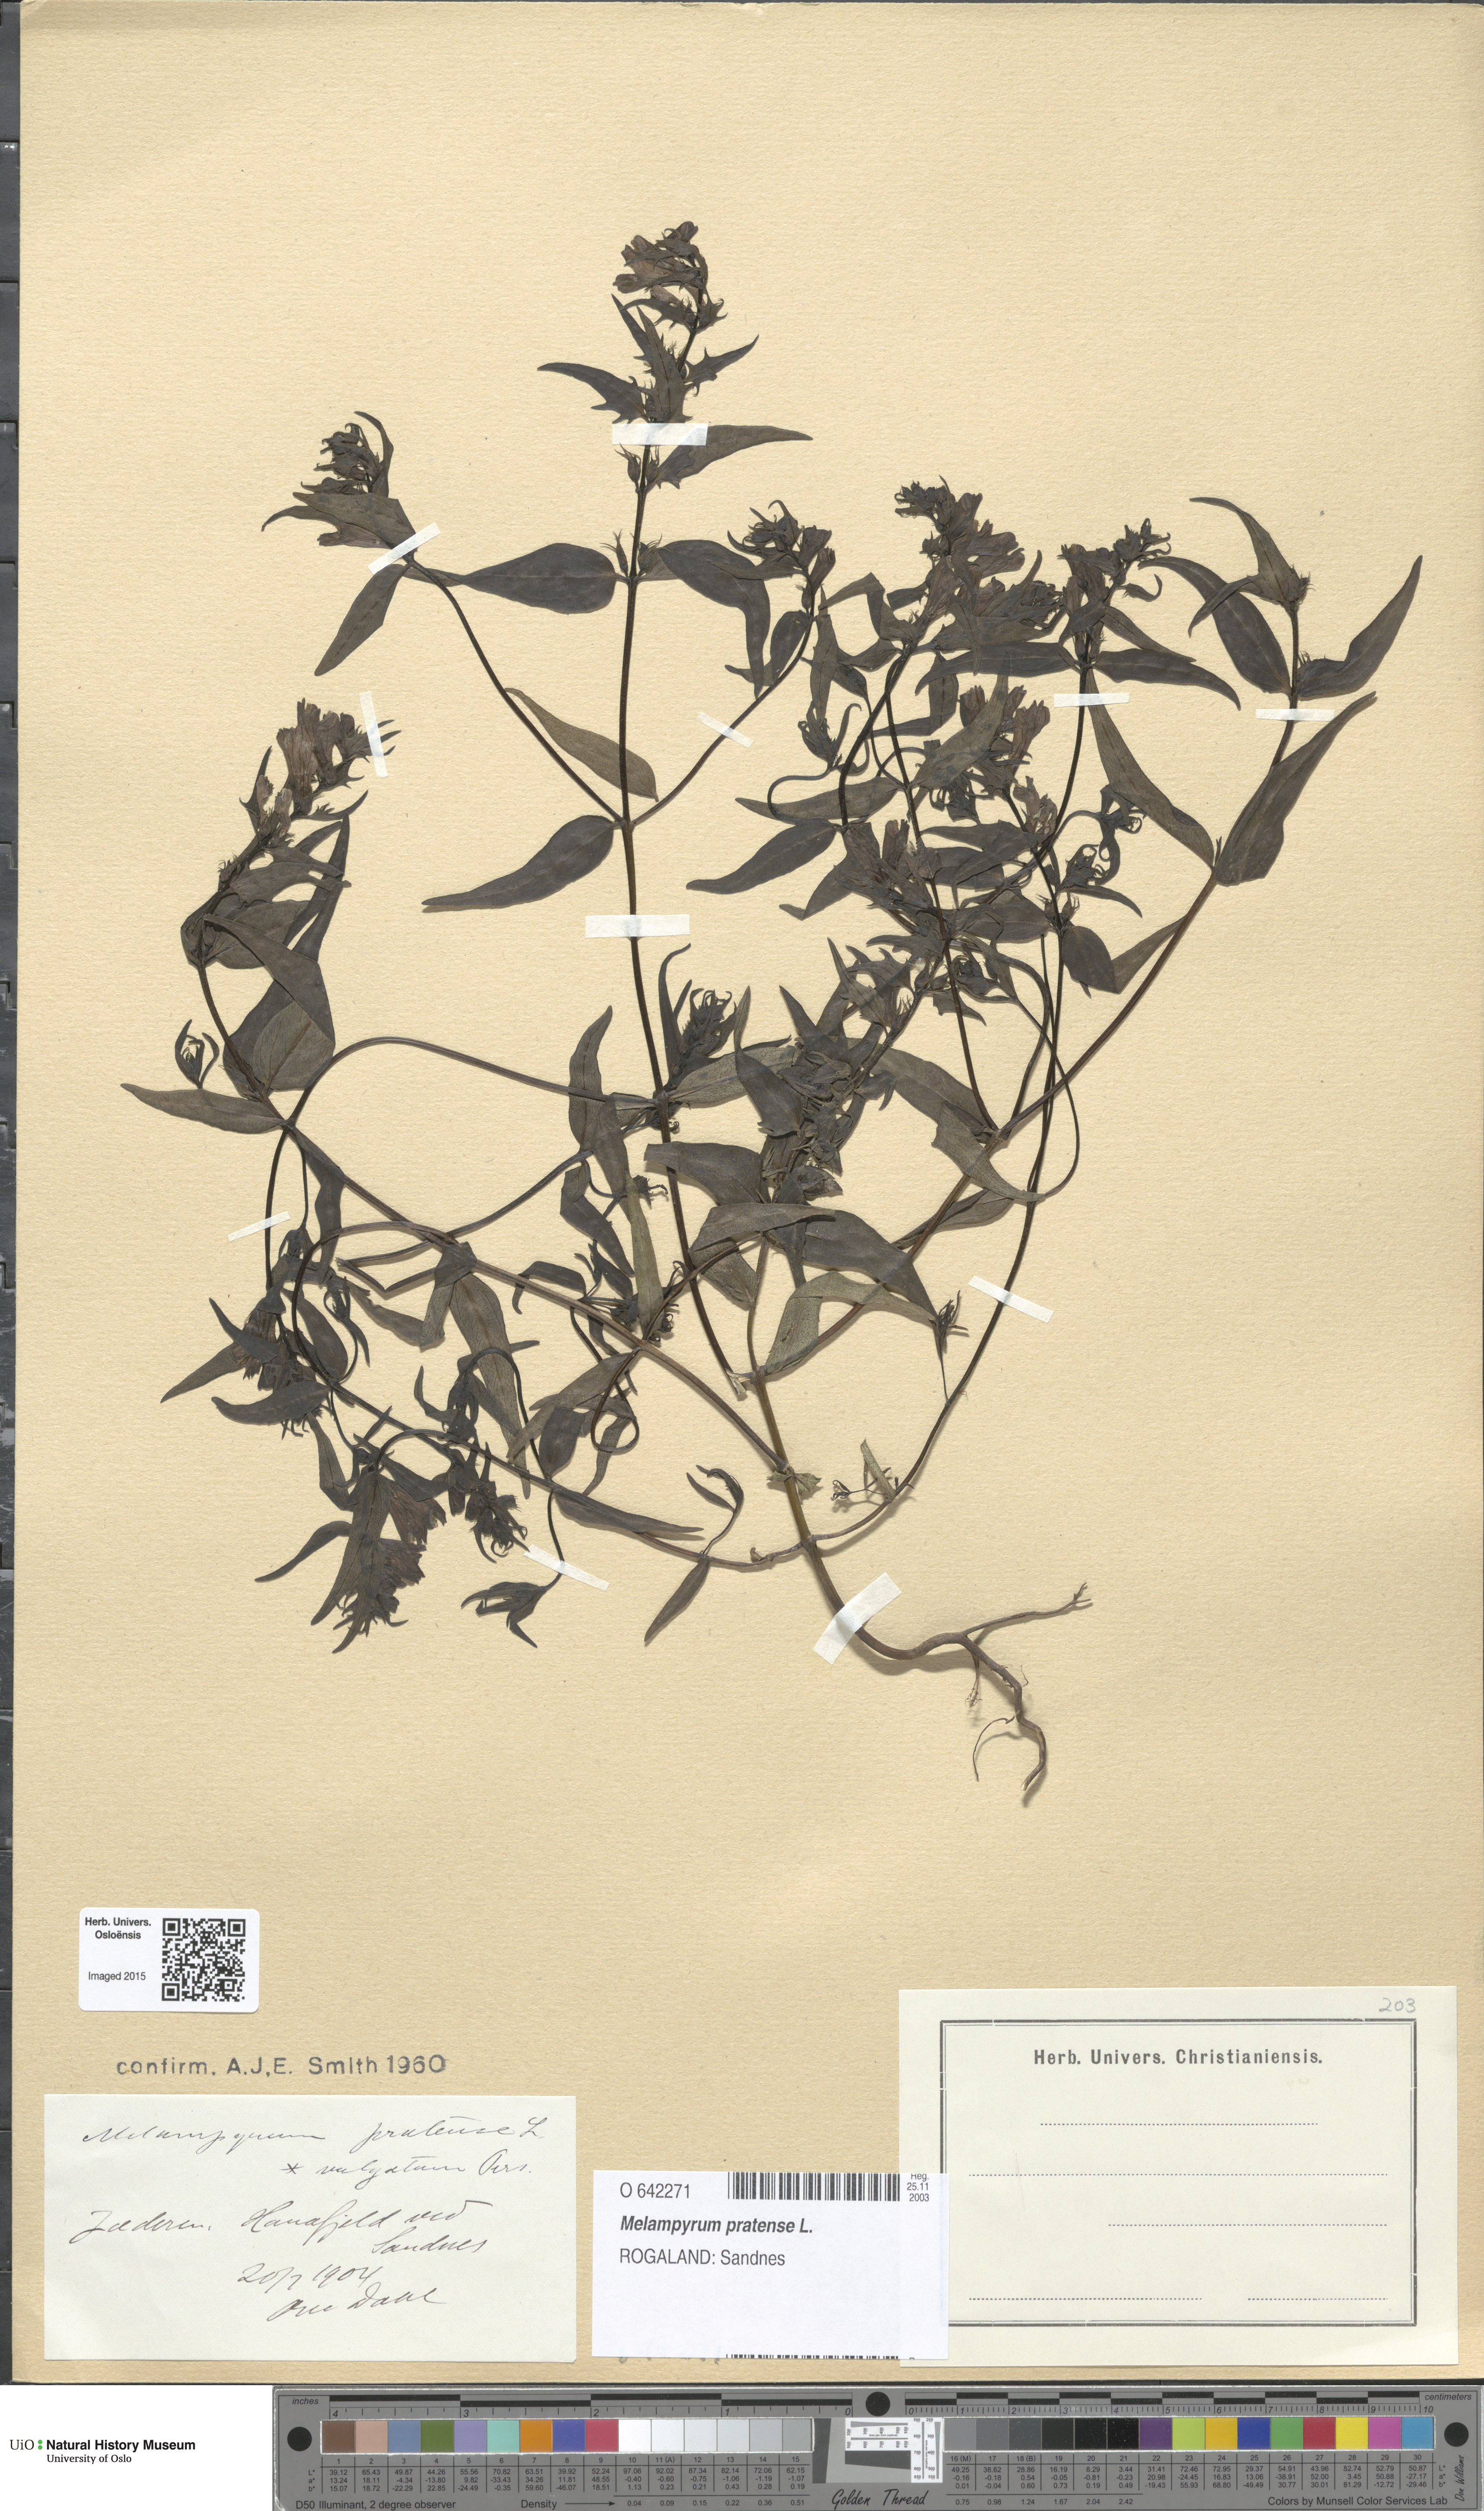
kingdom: Plantae
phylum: Tracheophyta
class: Magnoliopsida
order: Lamiales
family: Orobanchaceae
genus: Melampyrum
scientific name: Melampyrum pratense
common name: Common cow-wheat
